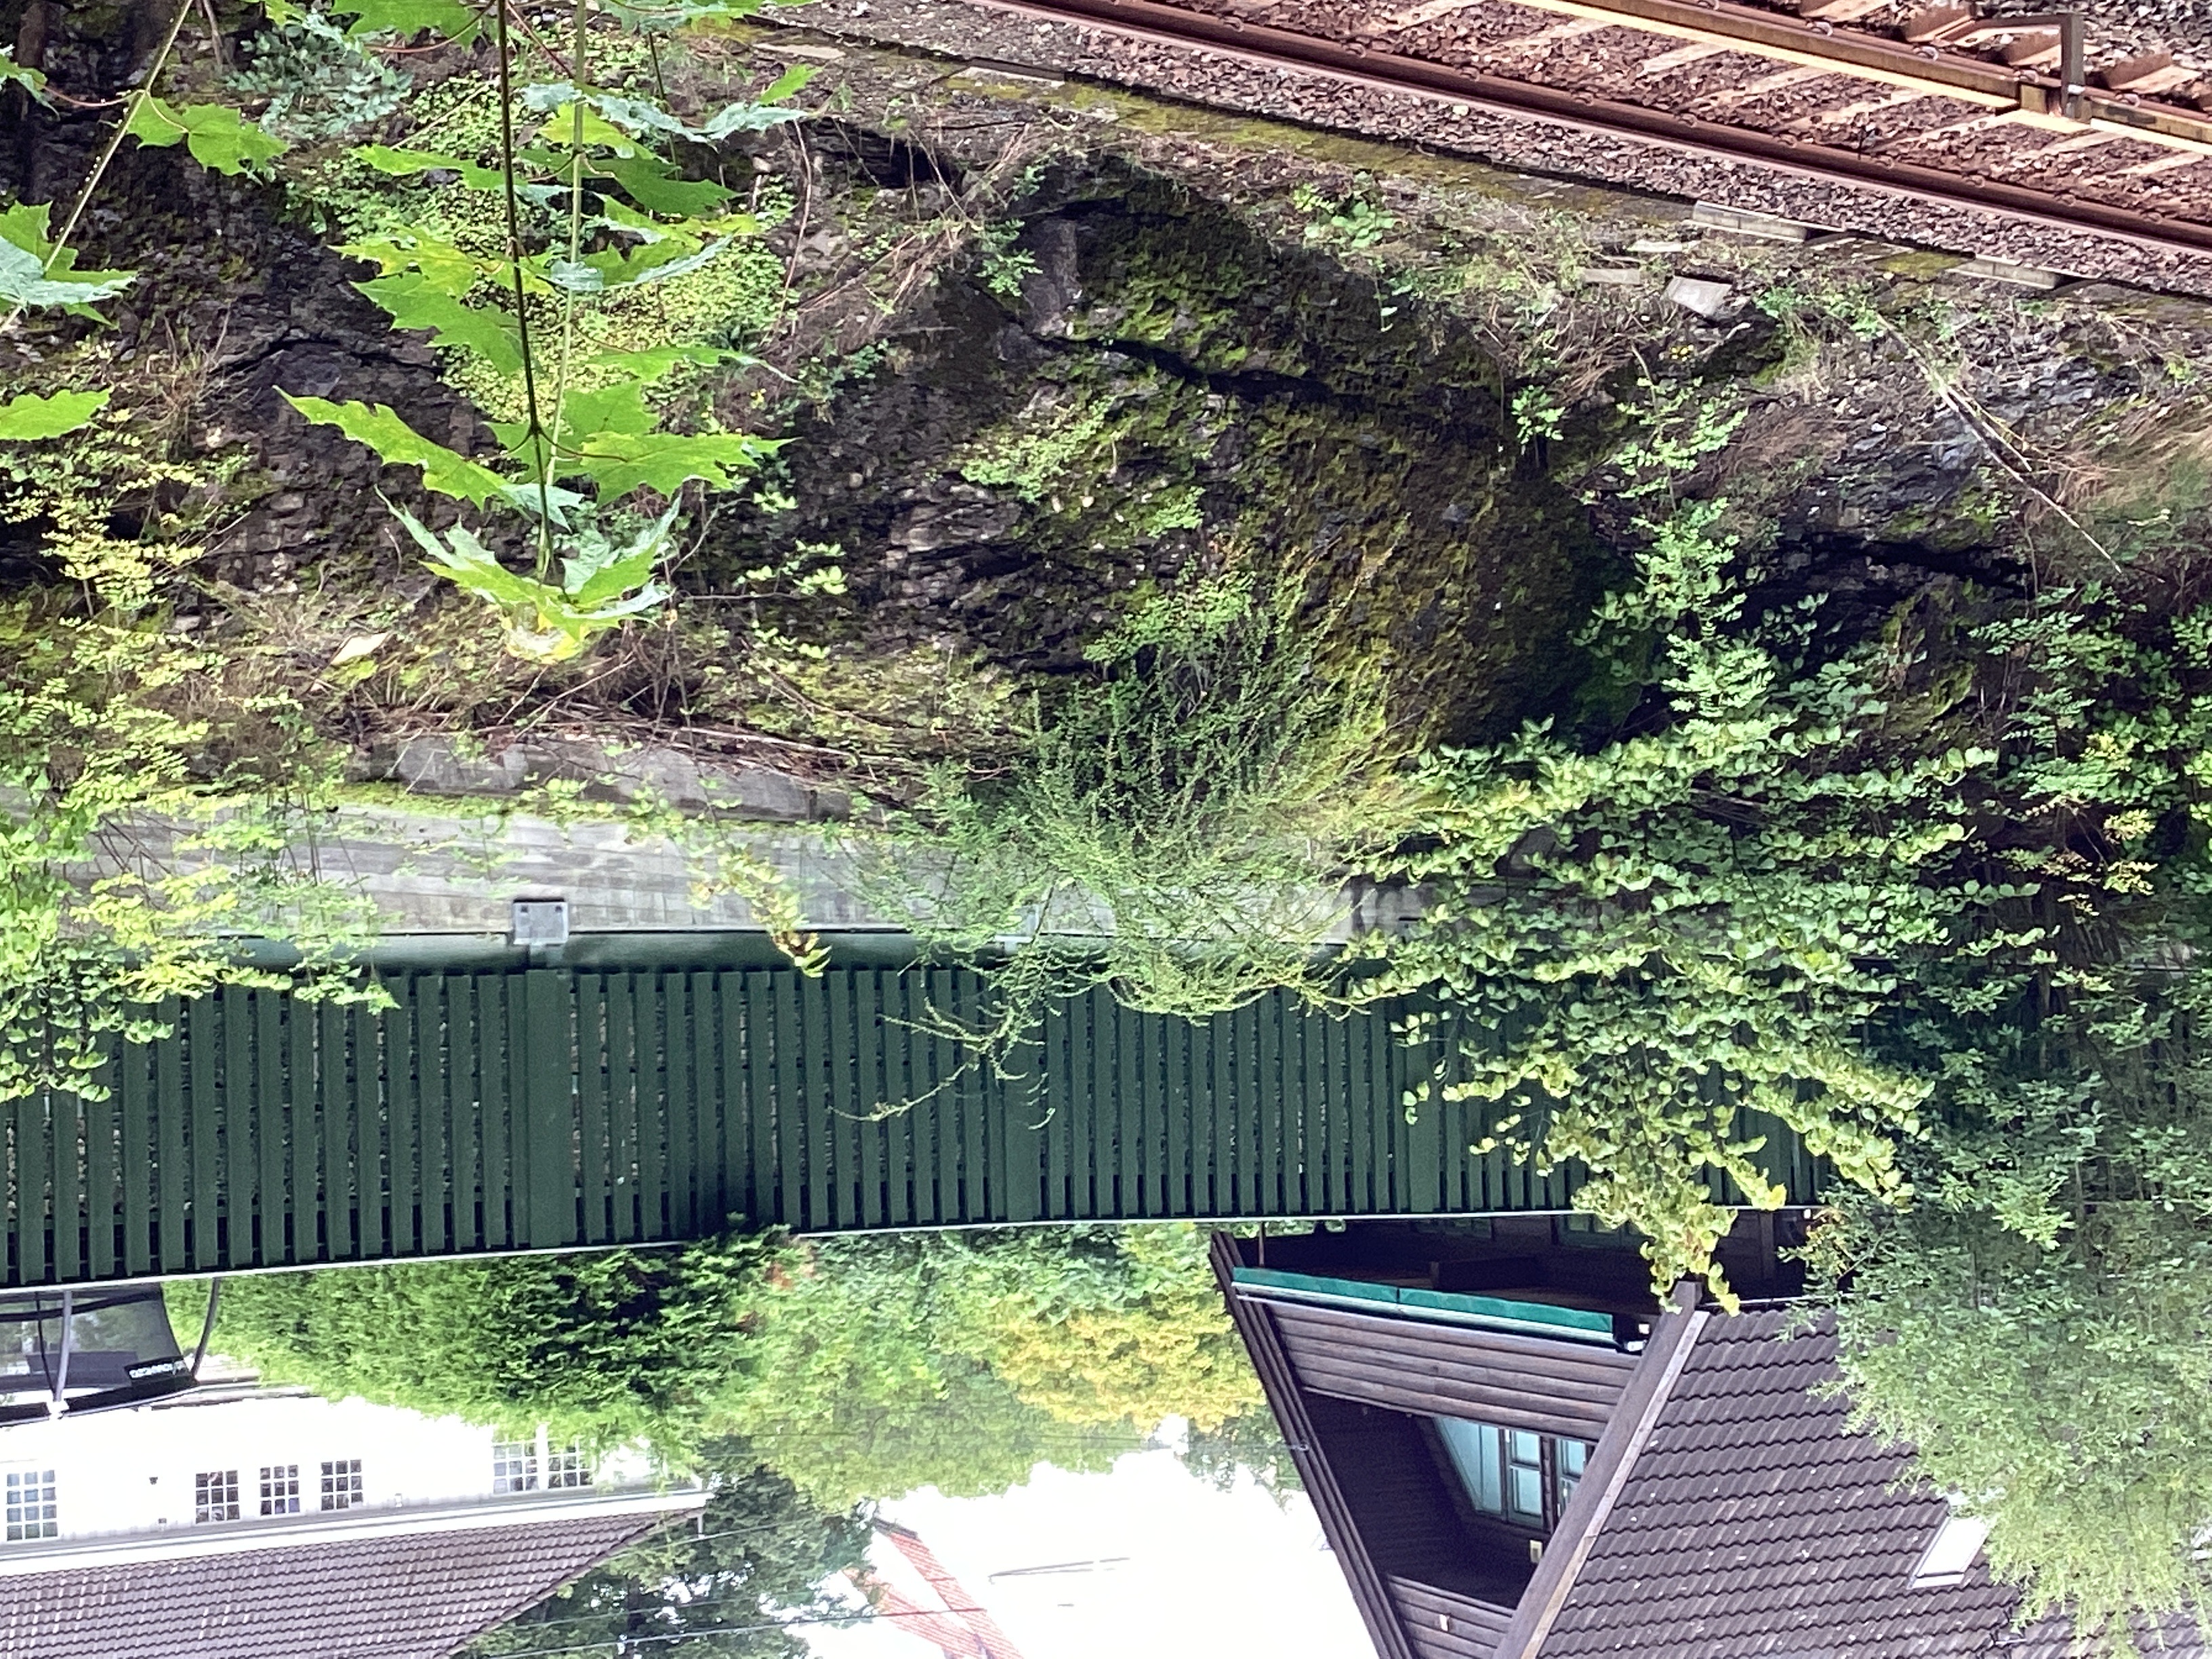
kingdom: Plantae
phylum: Tracheophyta
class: Magnoliopsida
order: Rosales
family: Rosaceae
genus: Cotoneaster
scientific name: Cotoneaster divaricatus
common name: sprikemispel
